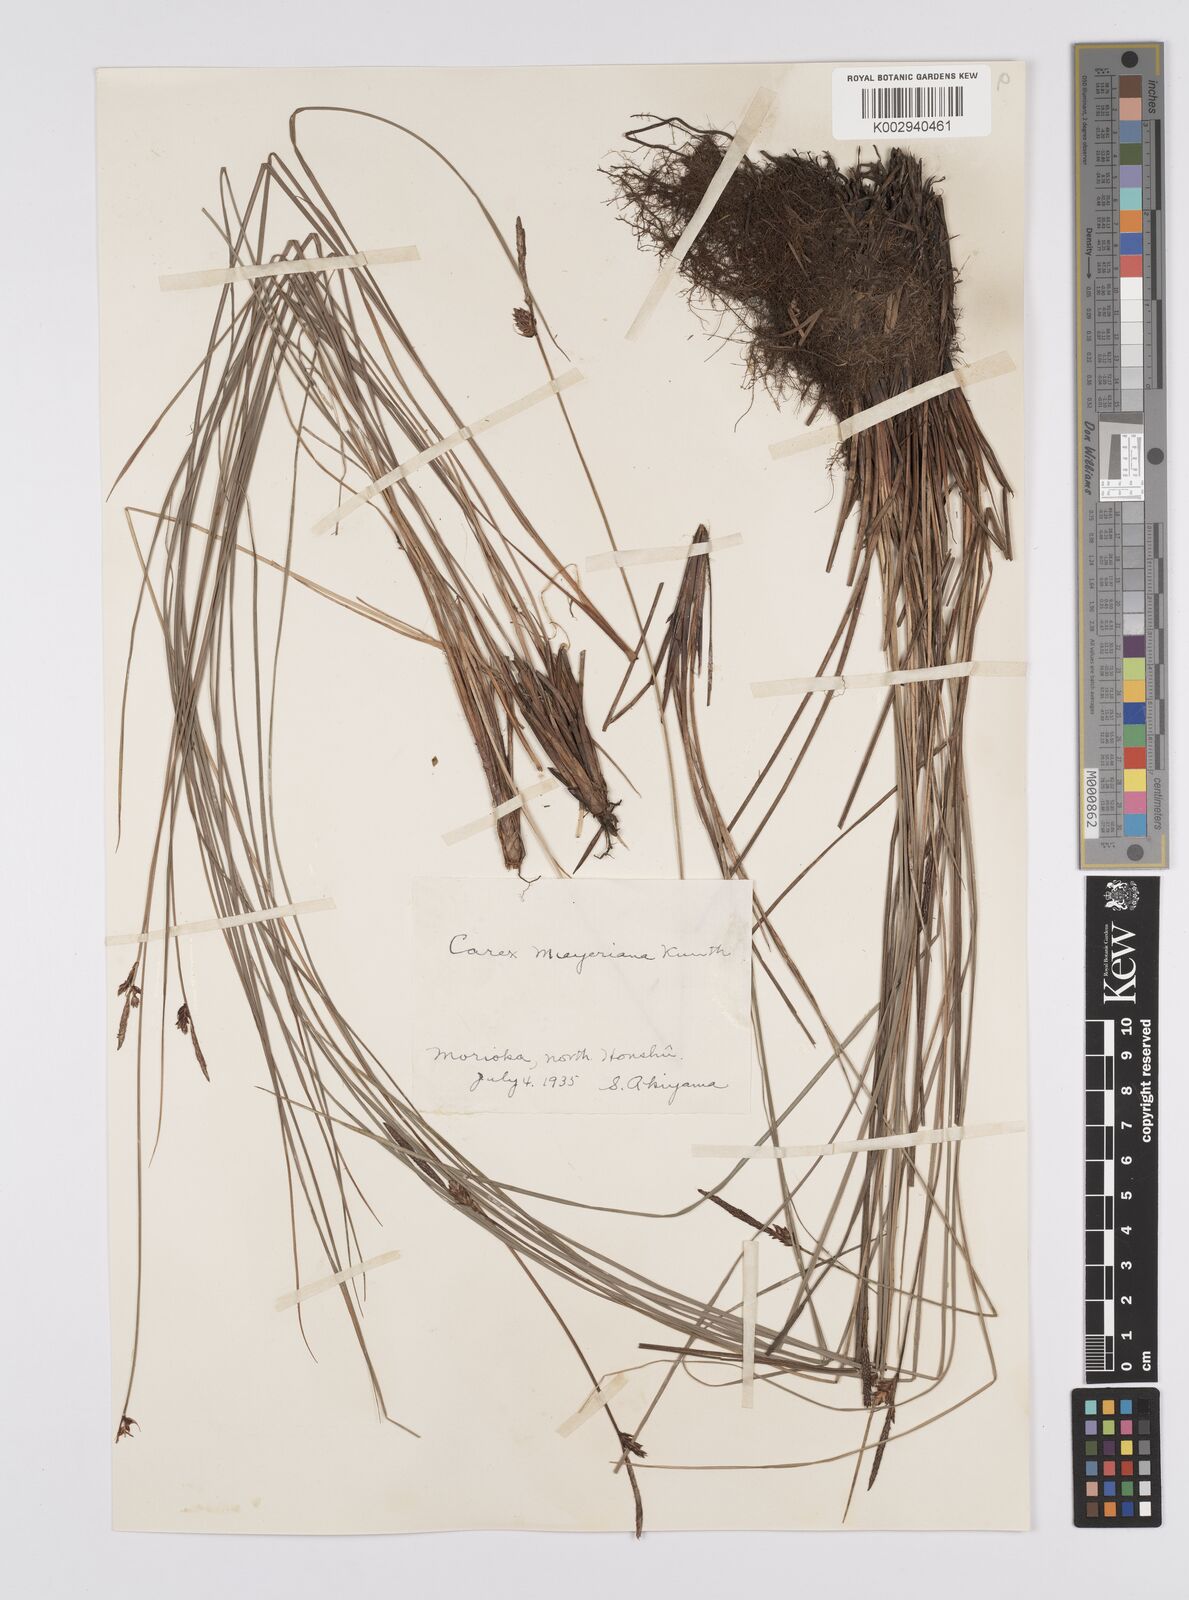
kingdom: Plantae
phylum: Tracheophyta
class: Liliopsida
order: Poales
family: Cyperaceae
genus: Carex
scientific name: Carex meyeriana
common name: Wula sedge
